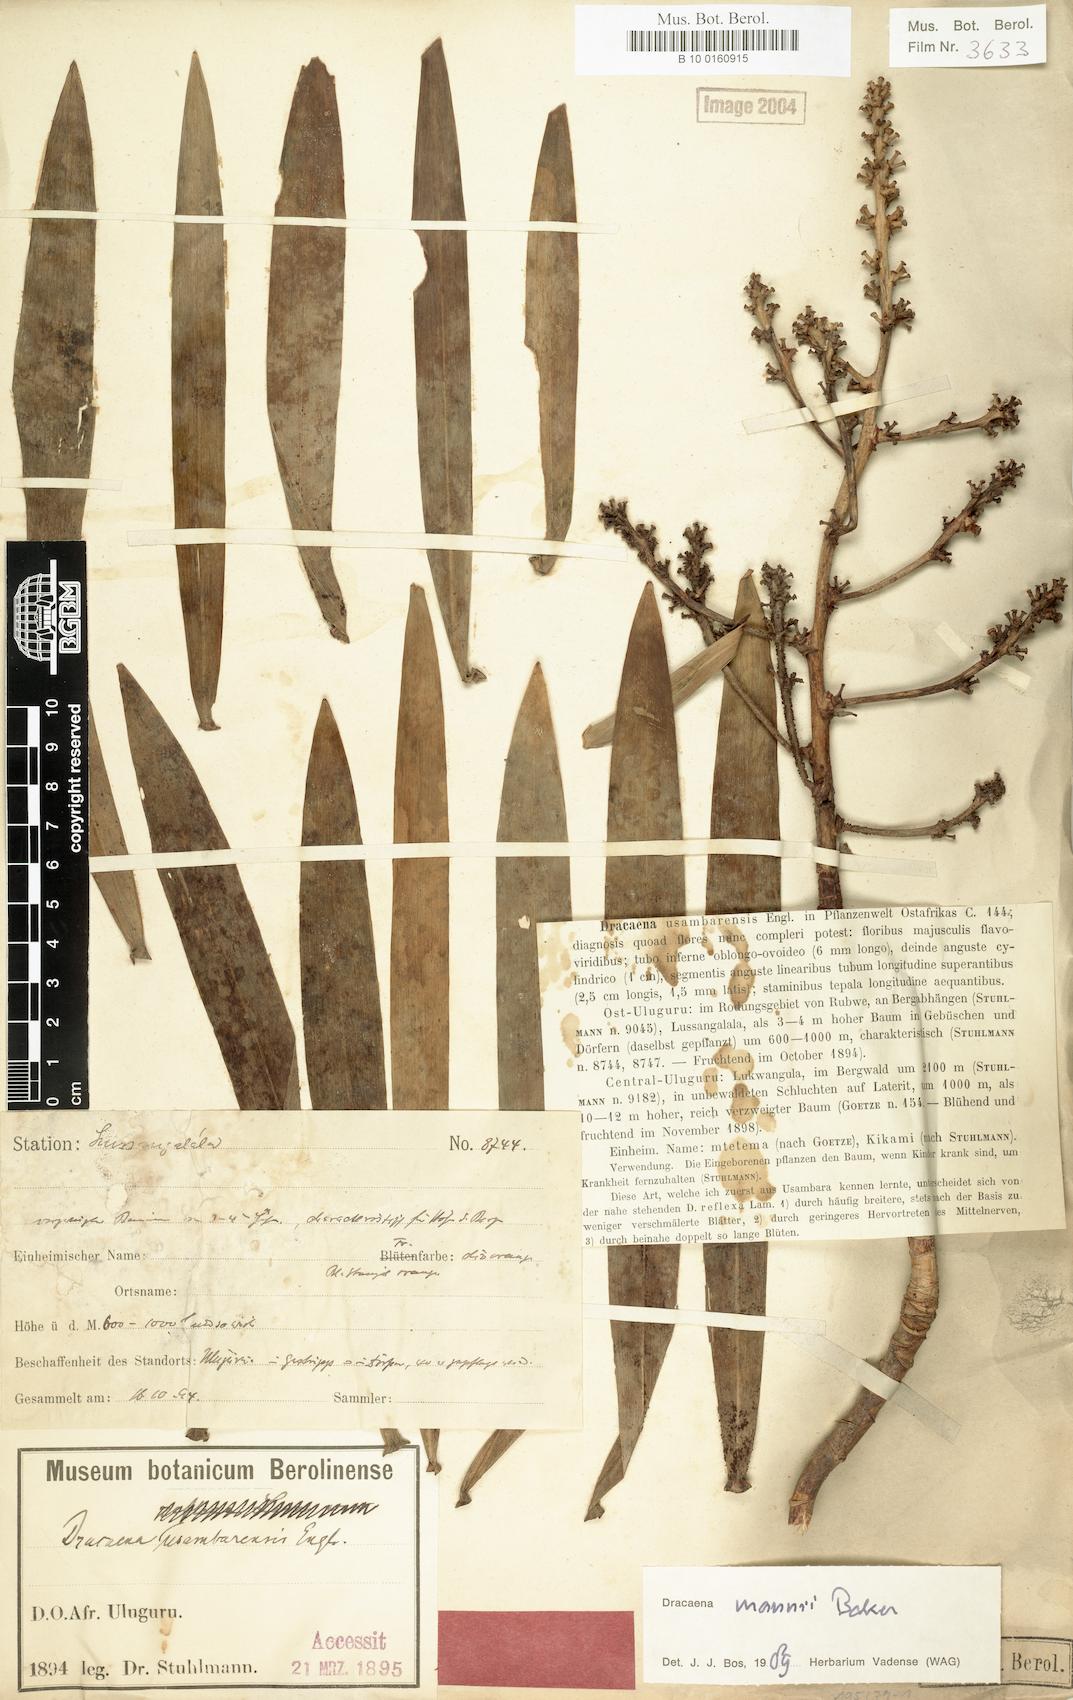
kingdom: Plantae
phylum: Tracheophyta
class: Liliopsida
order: Asparagales
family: Asparagaceae
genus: Dracaena
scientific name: Dracaena mannii
